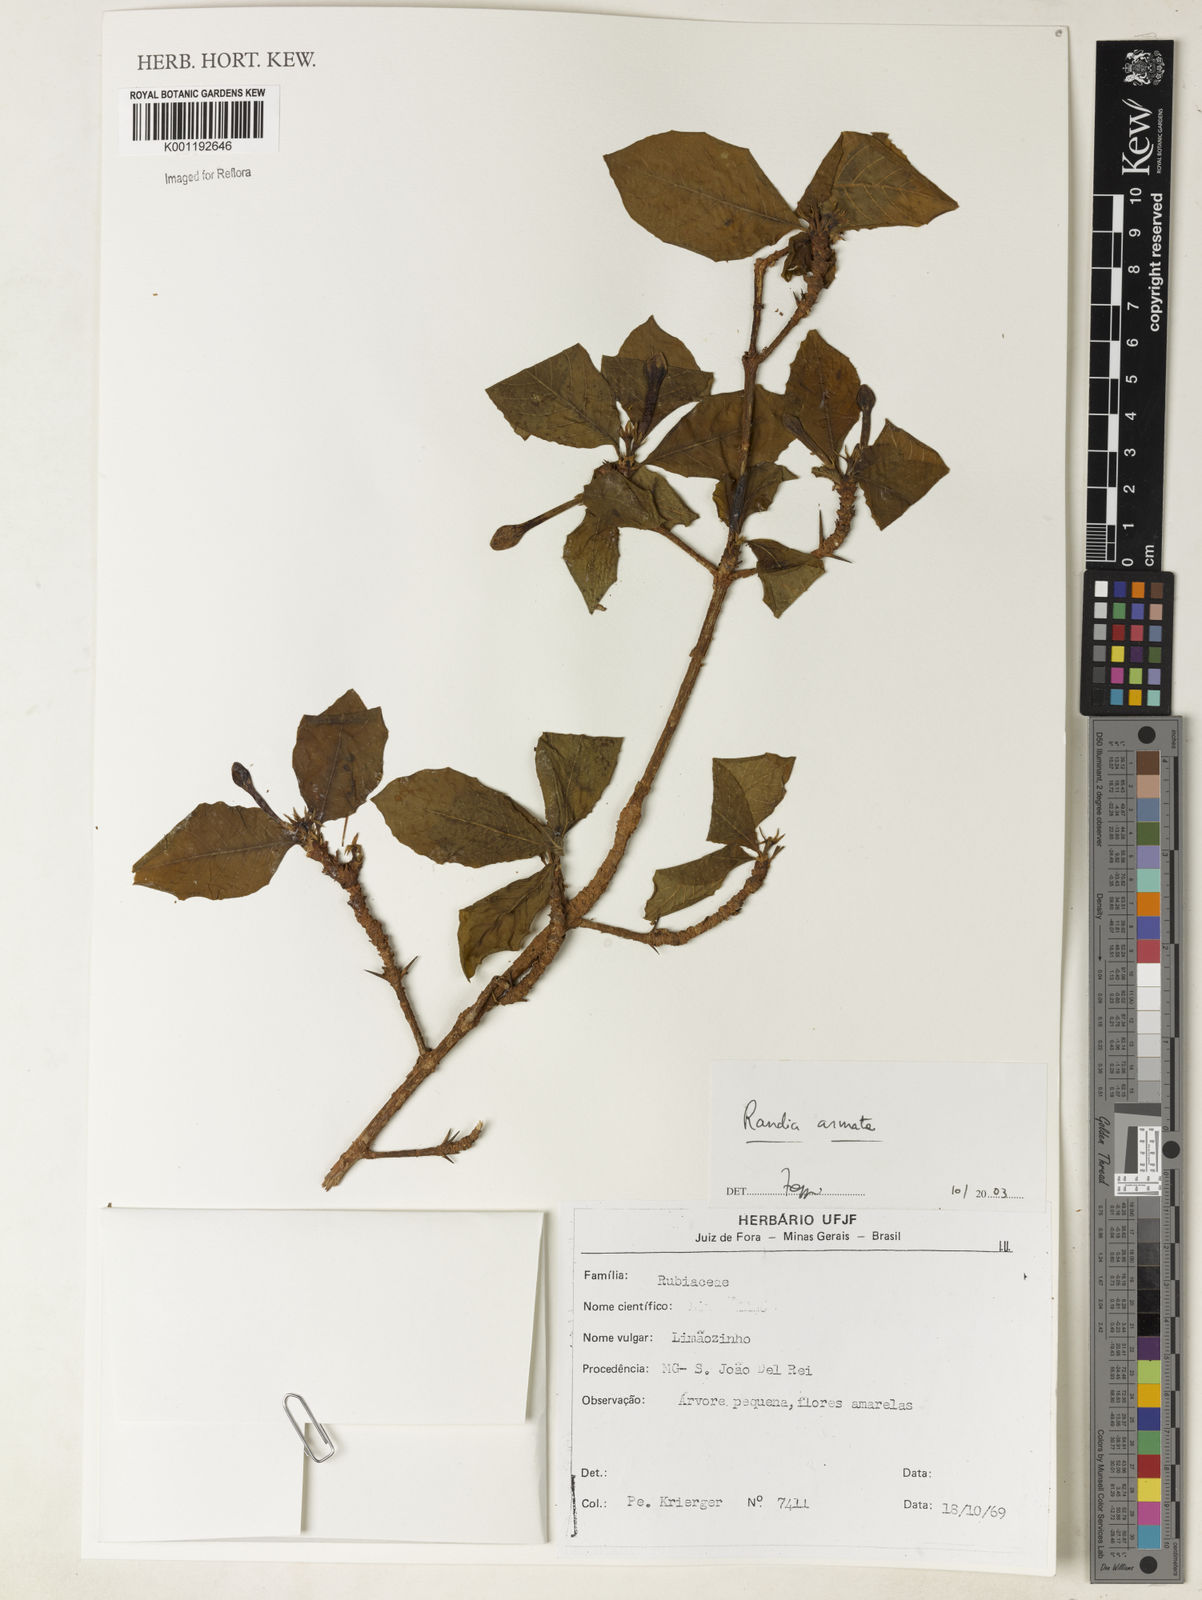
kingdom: Plantae
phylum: Tracheophyta
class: Magnoliopsida
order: Gentianales
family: Rubiaceae
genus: Randia
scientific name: Randia armata
